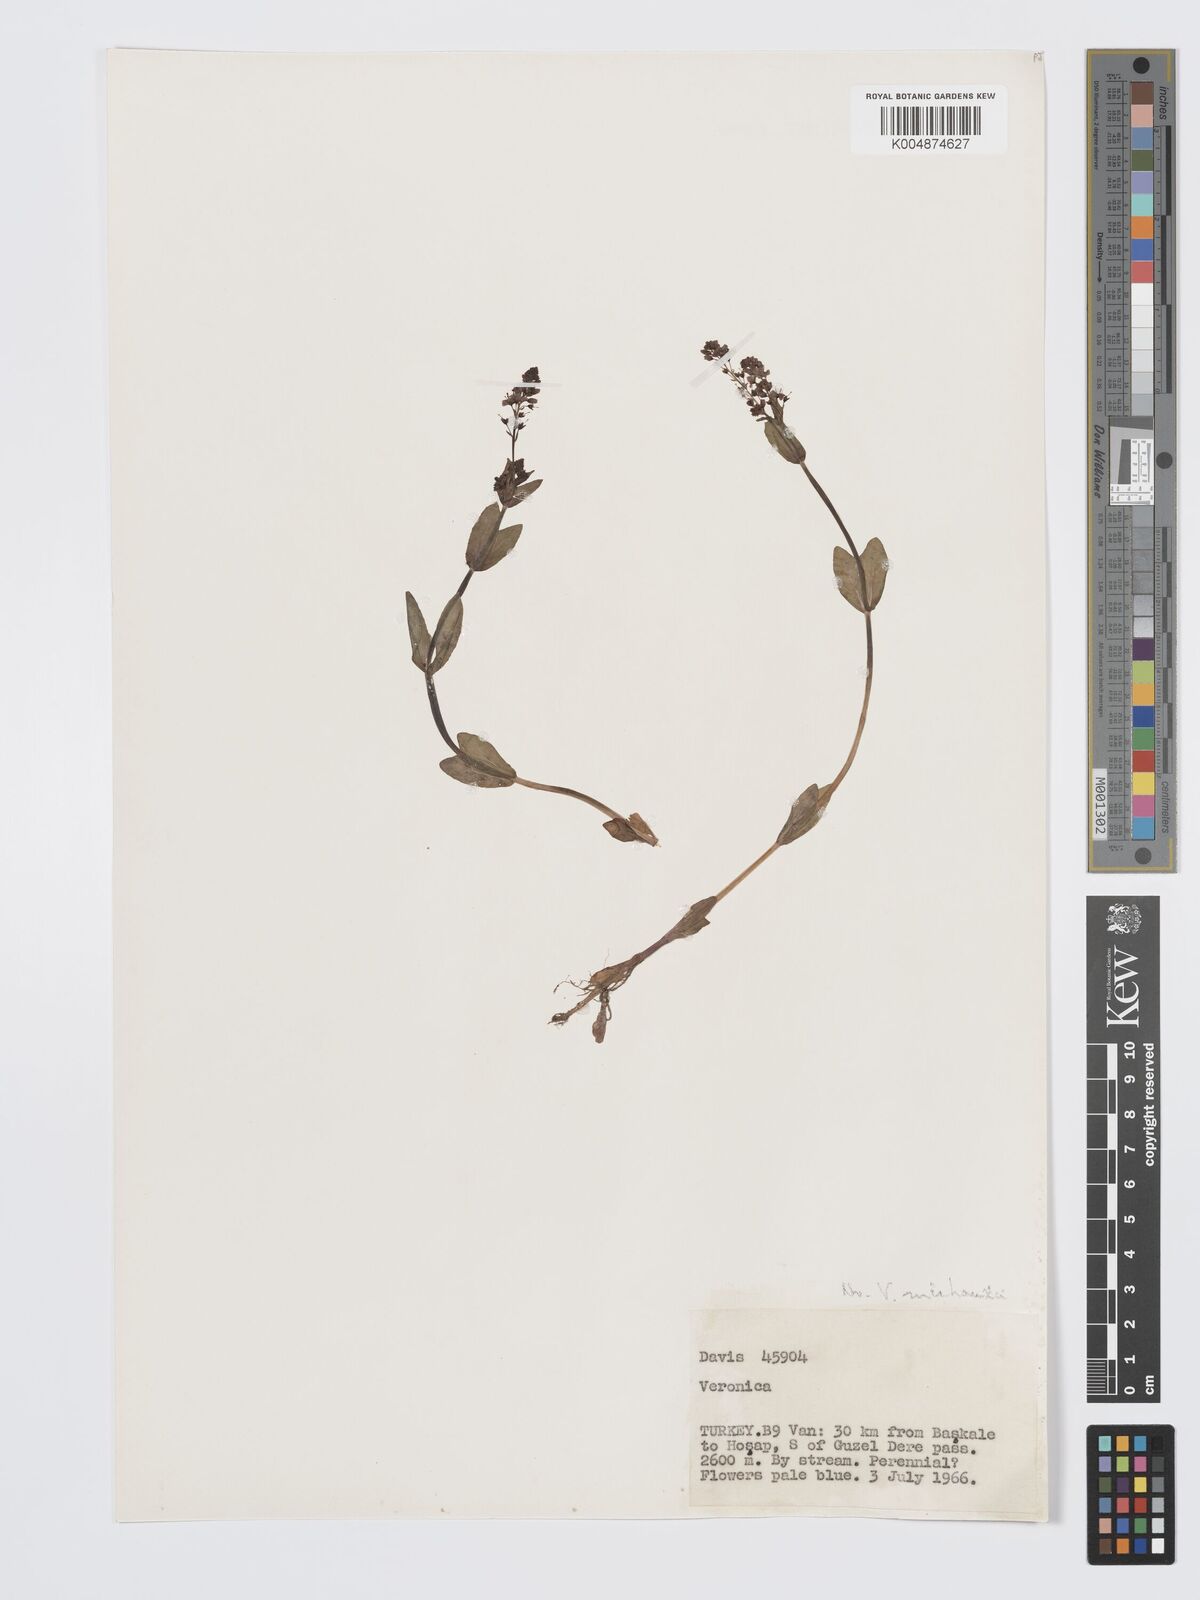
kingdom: Plantae
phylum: Tracheophyta
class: Magnoliopsida
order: Lamiales
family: Plantaginaceae
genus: Veronica
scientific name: Veronica
